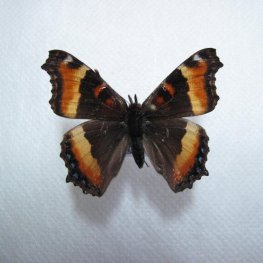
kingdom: Animalia
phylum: Arthropoda
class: Insecta
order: Lepidoptera
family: Nymphalidae
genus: Aglais
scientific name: Aglais milberti
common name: Milbert's Tortoiseshell
